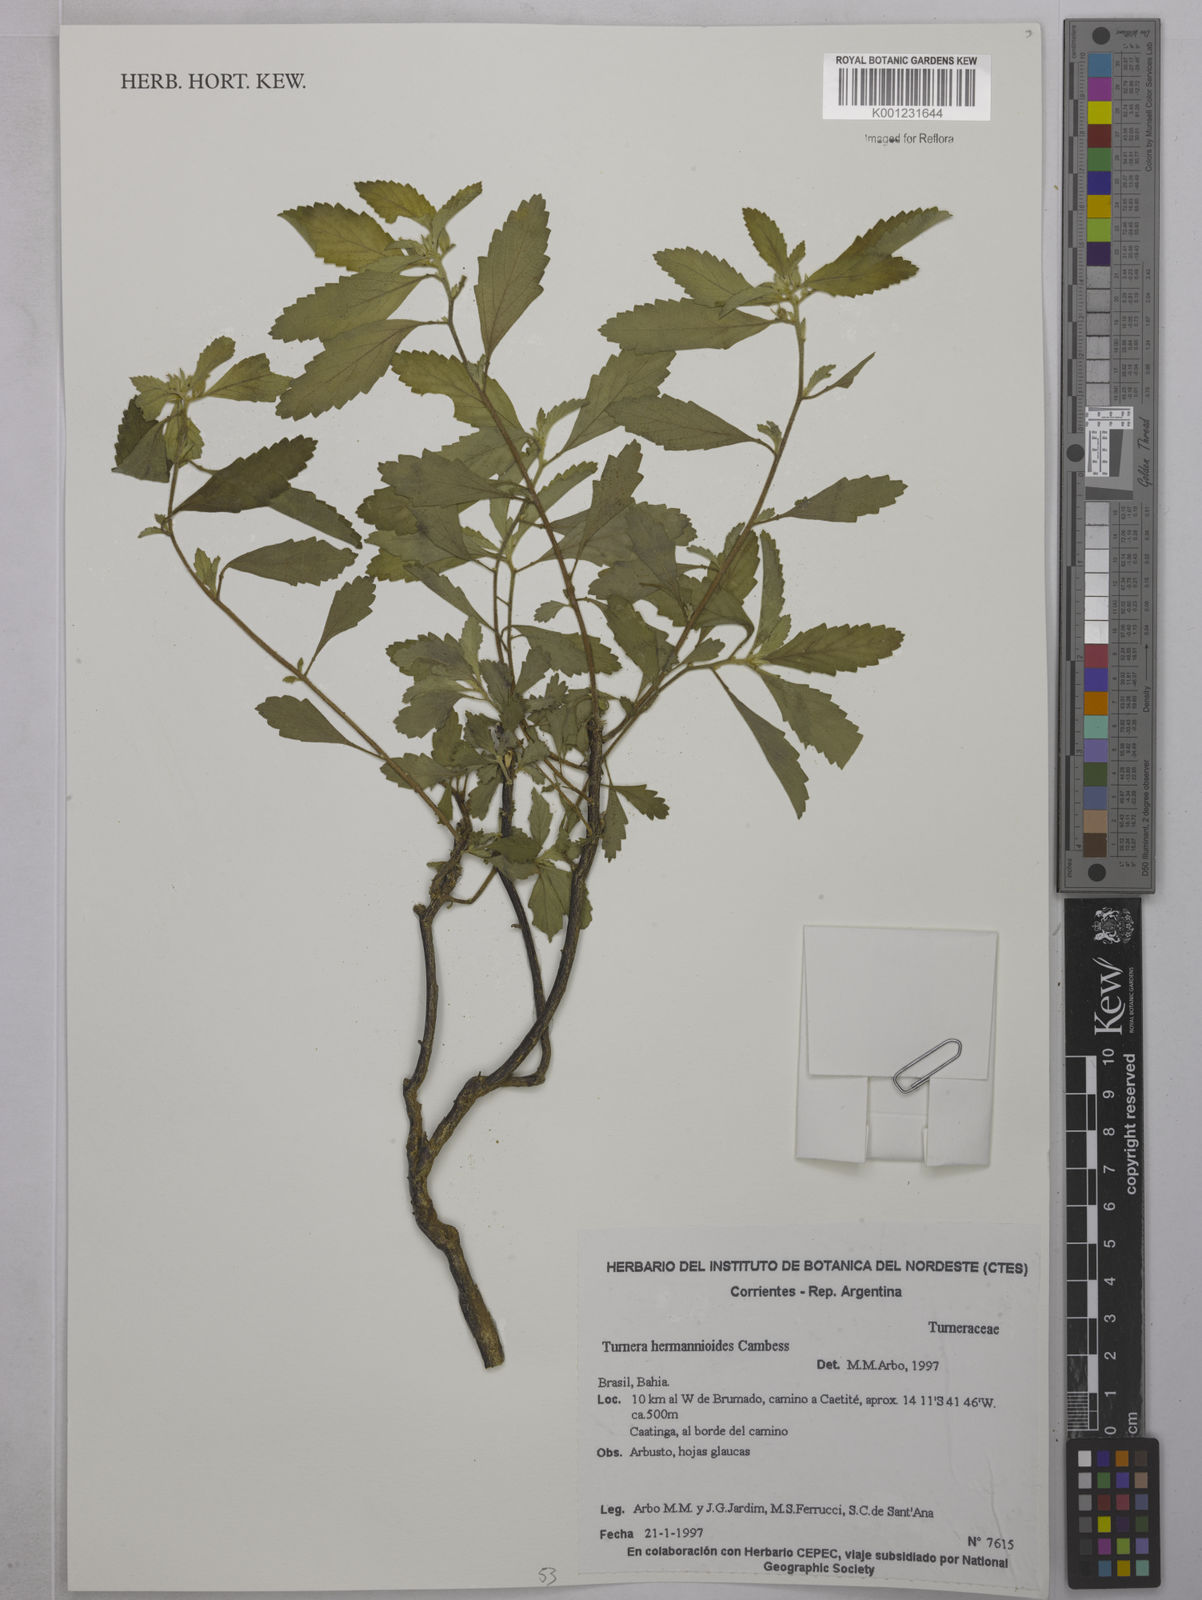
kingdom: Plantae
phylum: Tracheophyta
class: Magnoliopsida
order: Malpighiales
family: Turneraceae
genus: Turnera
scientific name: Turnera hermannioides
